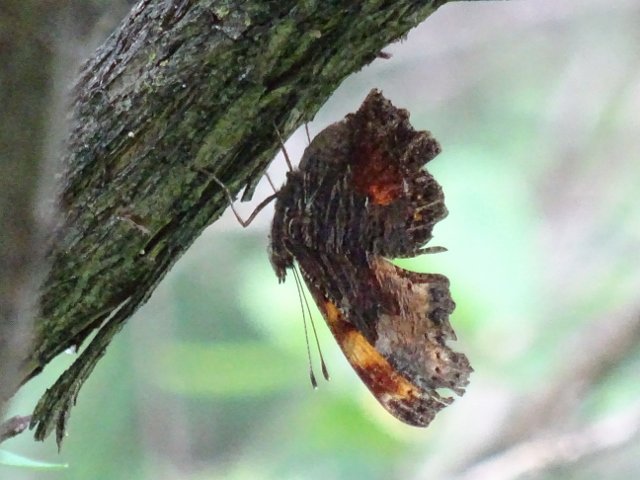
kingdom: Animalia
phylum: Arthropoda
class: Insecta
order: Lepidoptera
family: Nymphalidae
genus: Polygonia
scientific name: Polygonia progne
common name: Gray Comma
